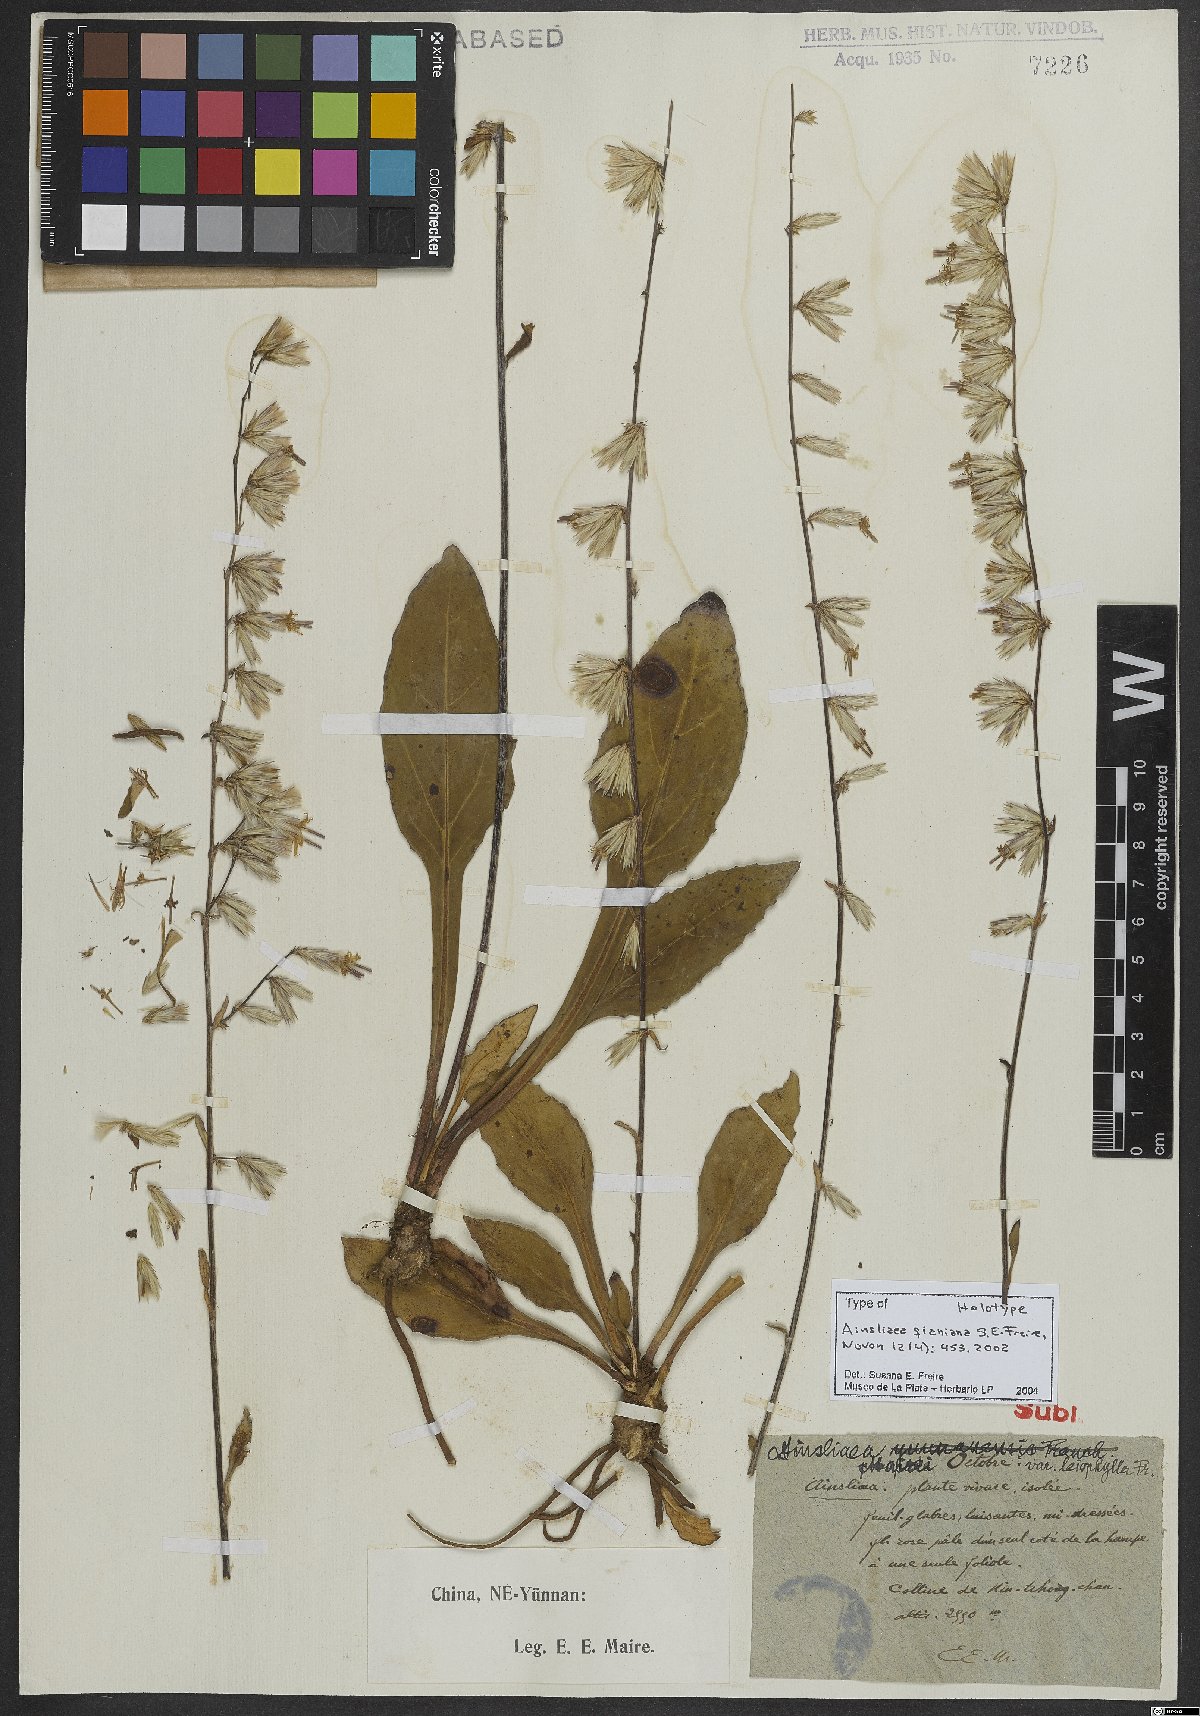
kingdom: Plantae
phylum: Tracheophyta
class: Magnoliopsida
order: Asterales
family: Asteraceae
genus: Ainsliaea
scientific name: Ainsliaea qianiana
